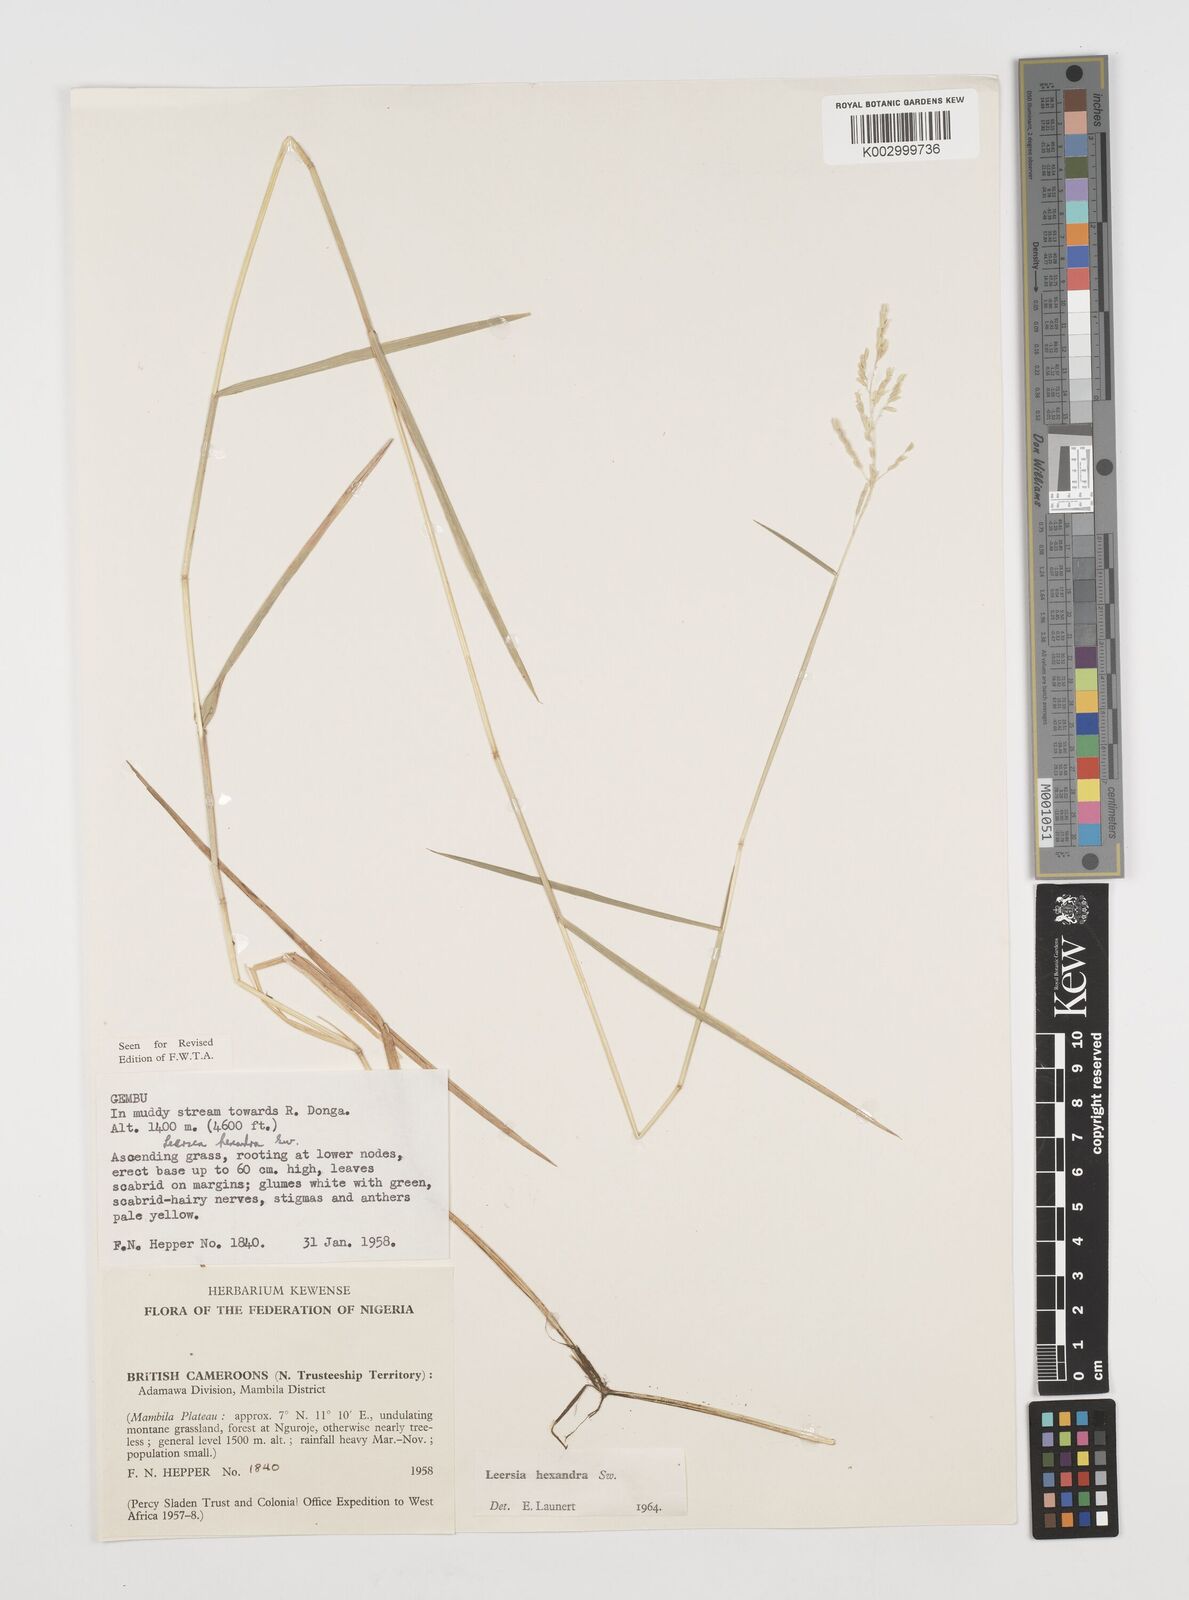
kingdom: Plantae
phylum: Tracheophyta
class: Liliopsida
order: Poales
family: Poaceae
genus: Leersia
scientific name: Leersia hexandra
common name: Southern cut grass
